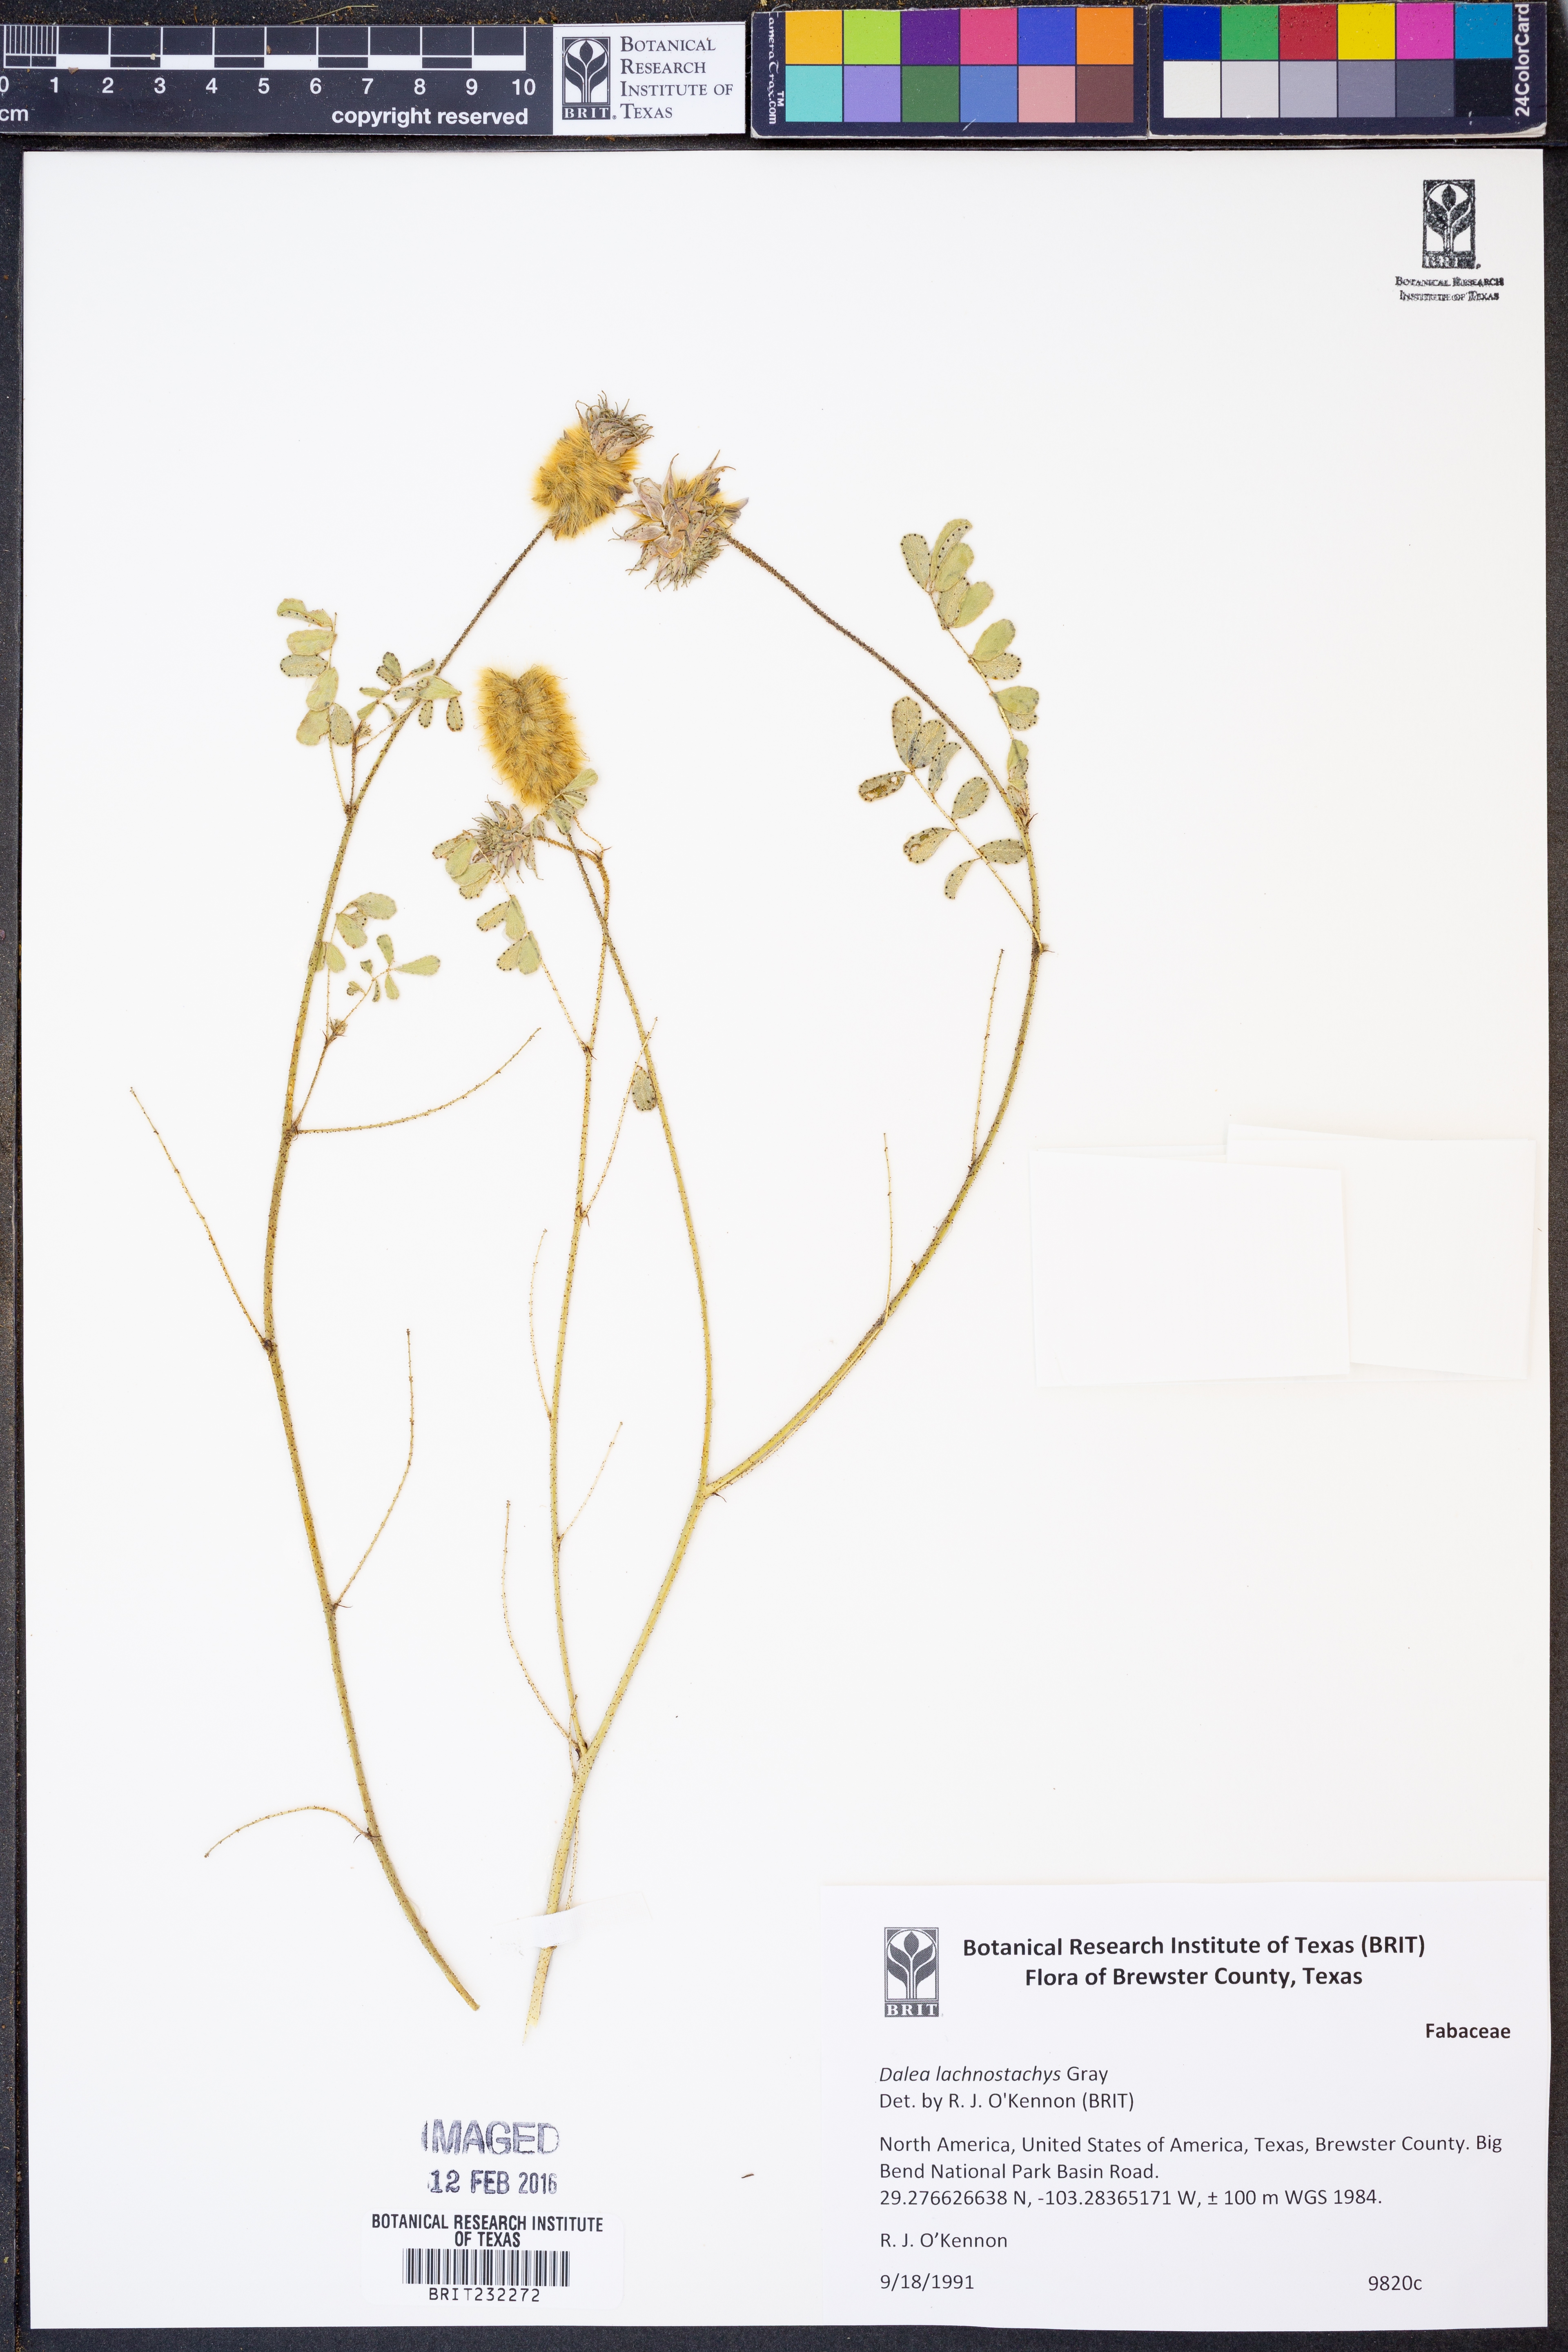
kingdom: Plantae
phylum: Tracheophyta
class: Magnoliopsida
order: Fabales
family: Fabaceae
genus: Dalea
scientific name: Dalea lachnostachys
